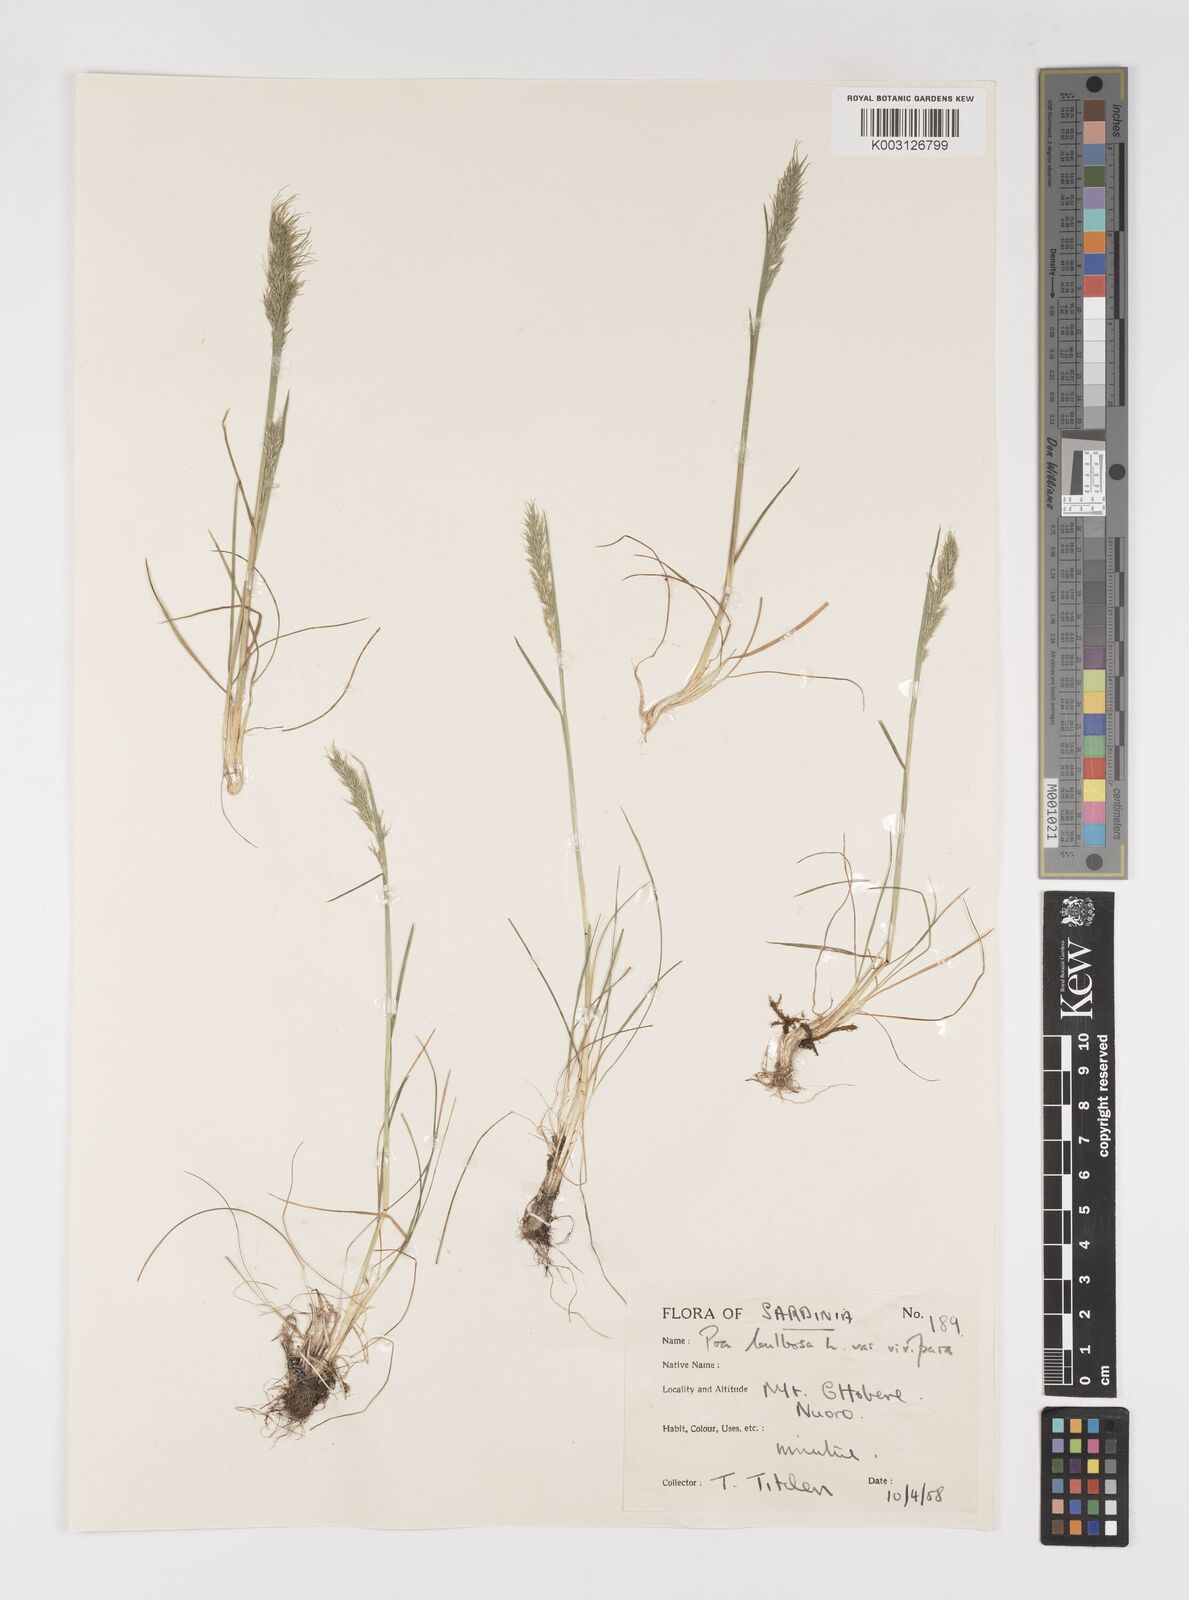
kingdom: Plantae
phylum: Tracheophyta
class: Liliopsida
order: Poales
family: Poaceae
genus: Poa
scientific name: Poa bulbosa
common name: Bulbous bluegrass
